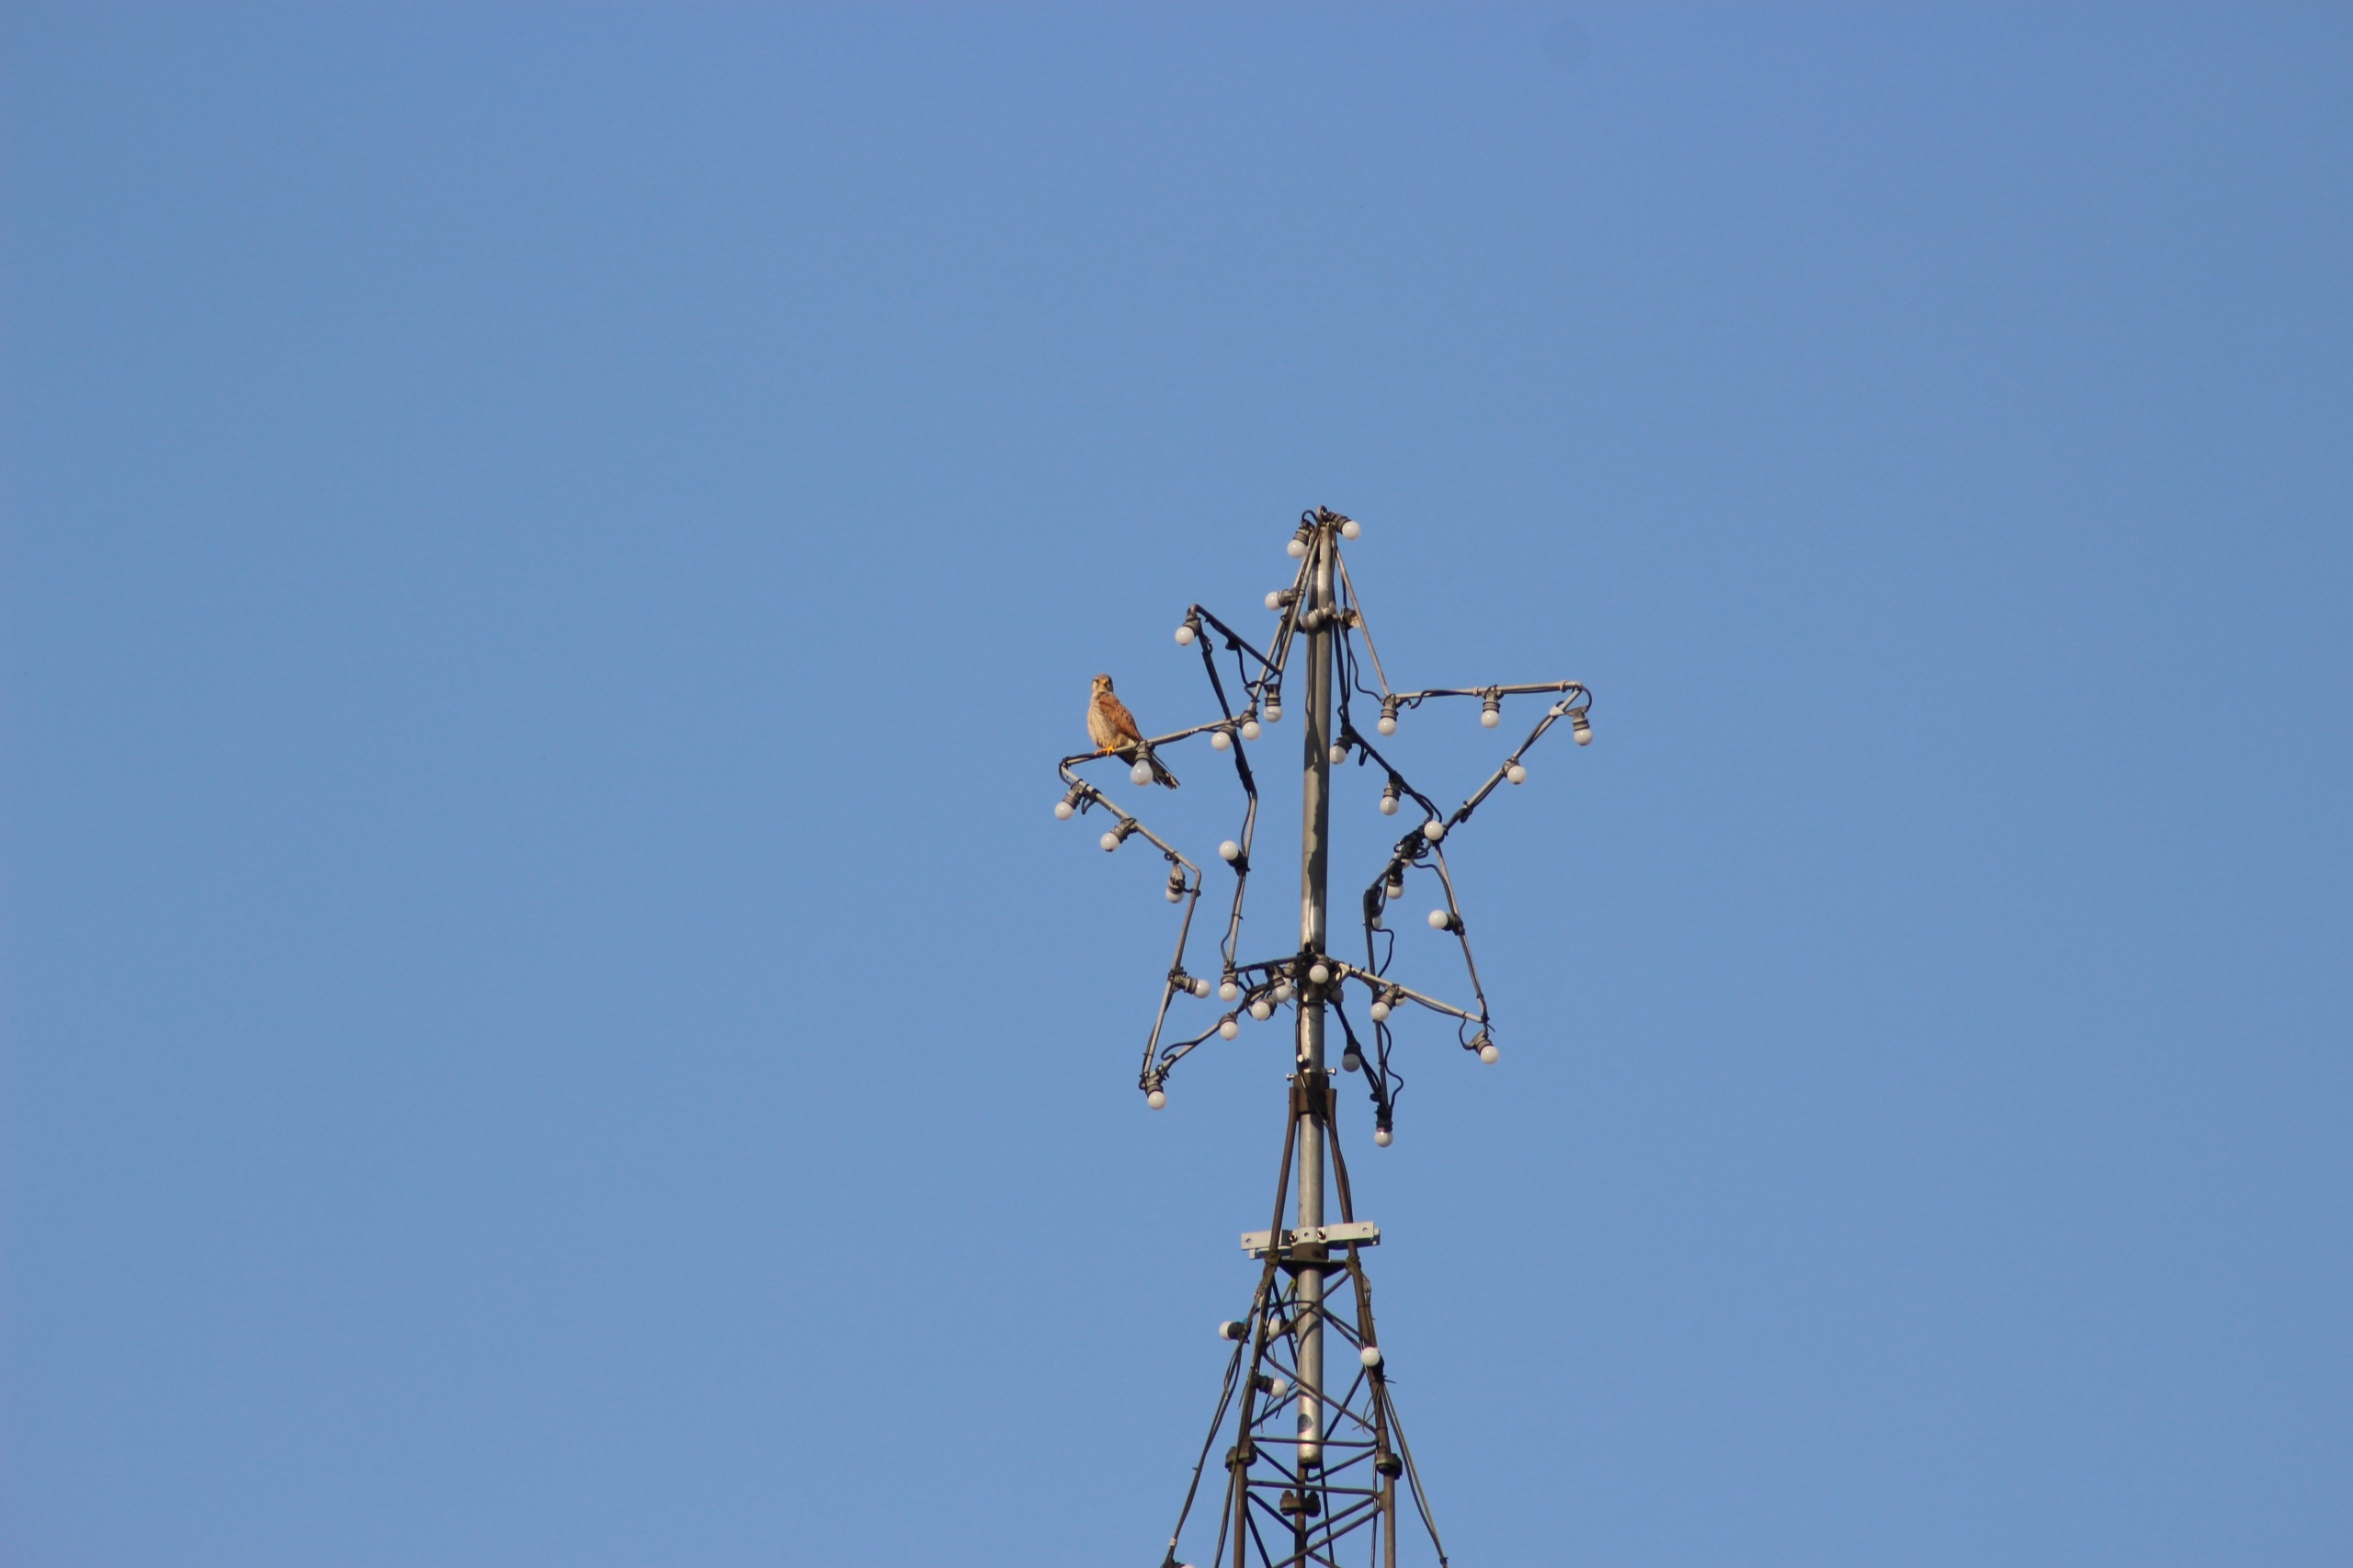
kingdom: Animalia
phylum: Chordata
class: Aves
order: Falconiformes
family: Falconidae
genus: Falco
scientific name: Falco tinnunculus
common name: Tårnfalk
